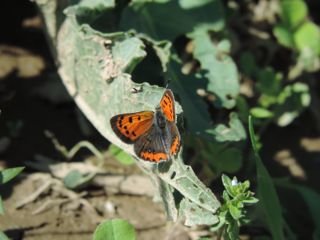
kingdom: Animalia
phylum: Arthropoda
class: Insecta
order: Lepidoptera
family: Lycaenidae
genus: Lycaena
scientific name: Lycaena phlaeas
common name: American Copper
